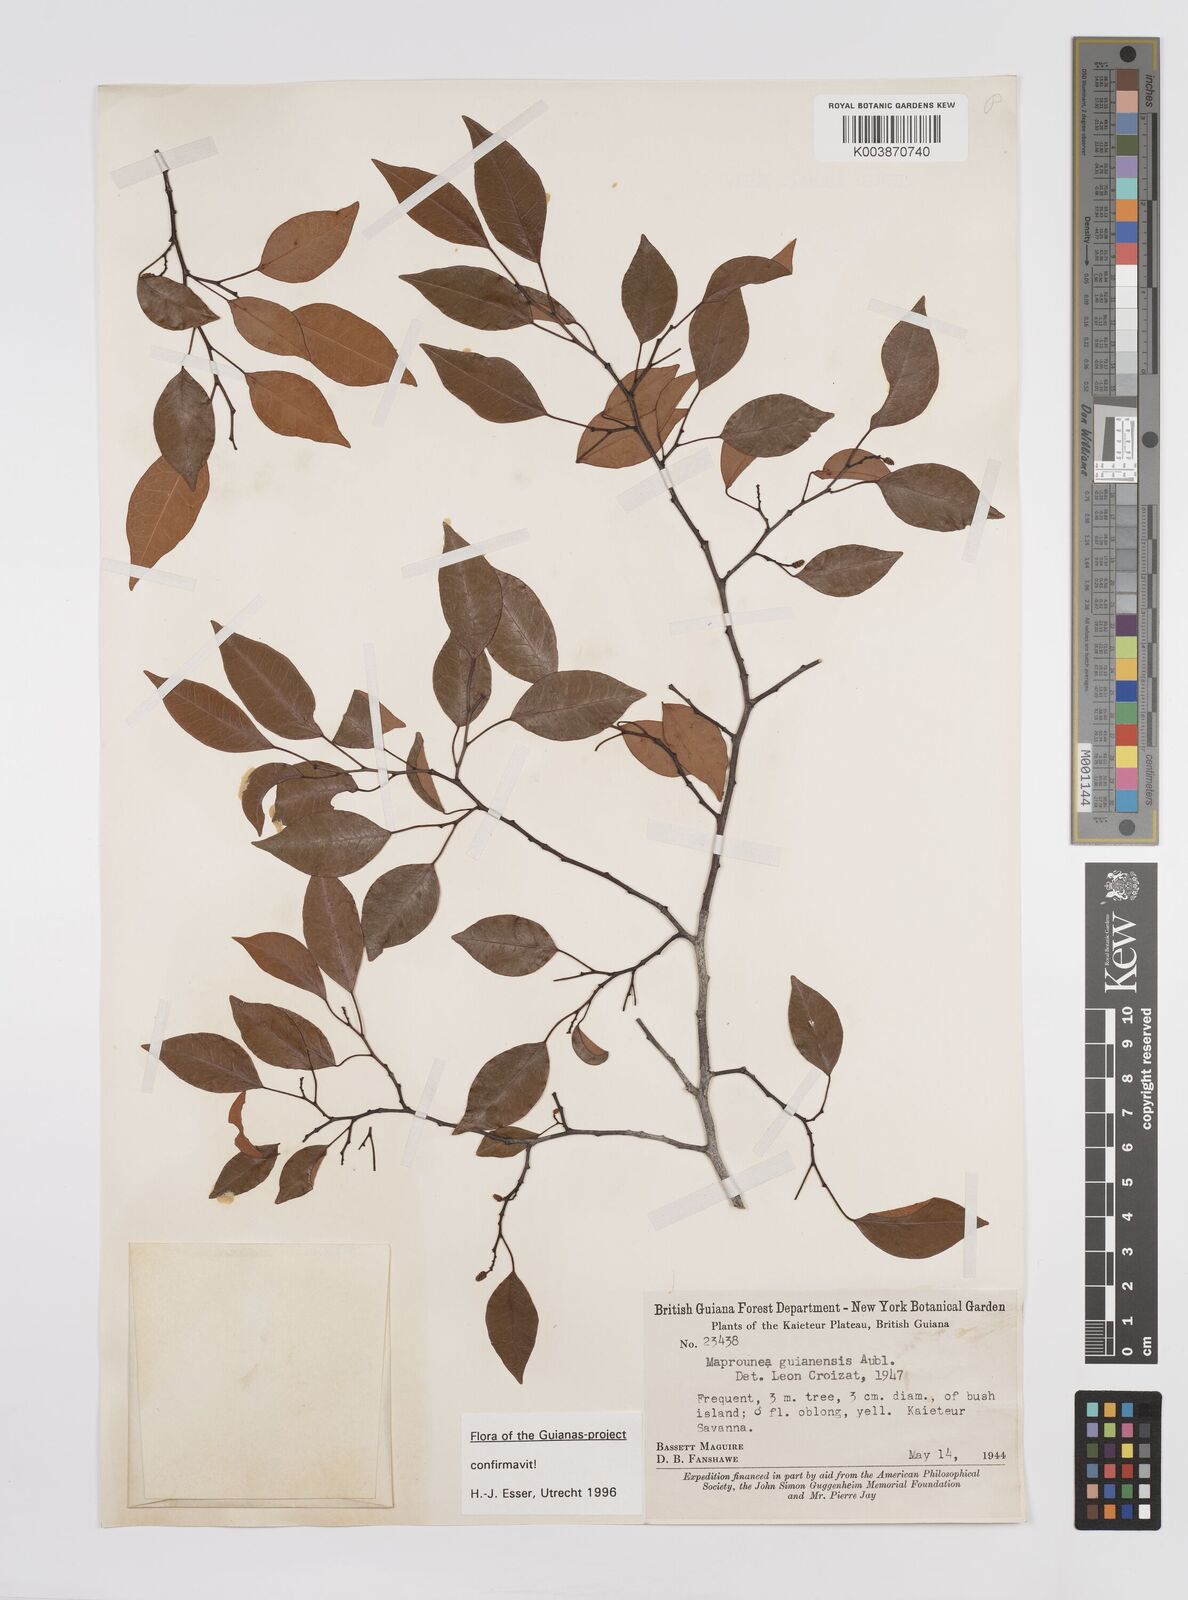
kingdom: Plantae
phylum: Tracheophyta
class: Magnoliopsida
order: Malpighiales
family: Euphorbiaceae
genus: Maprounea
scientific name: Maprounea guianensis
